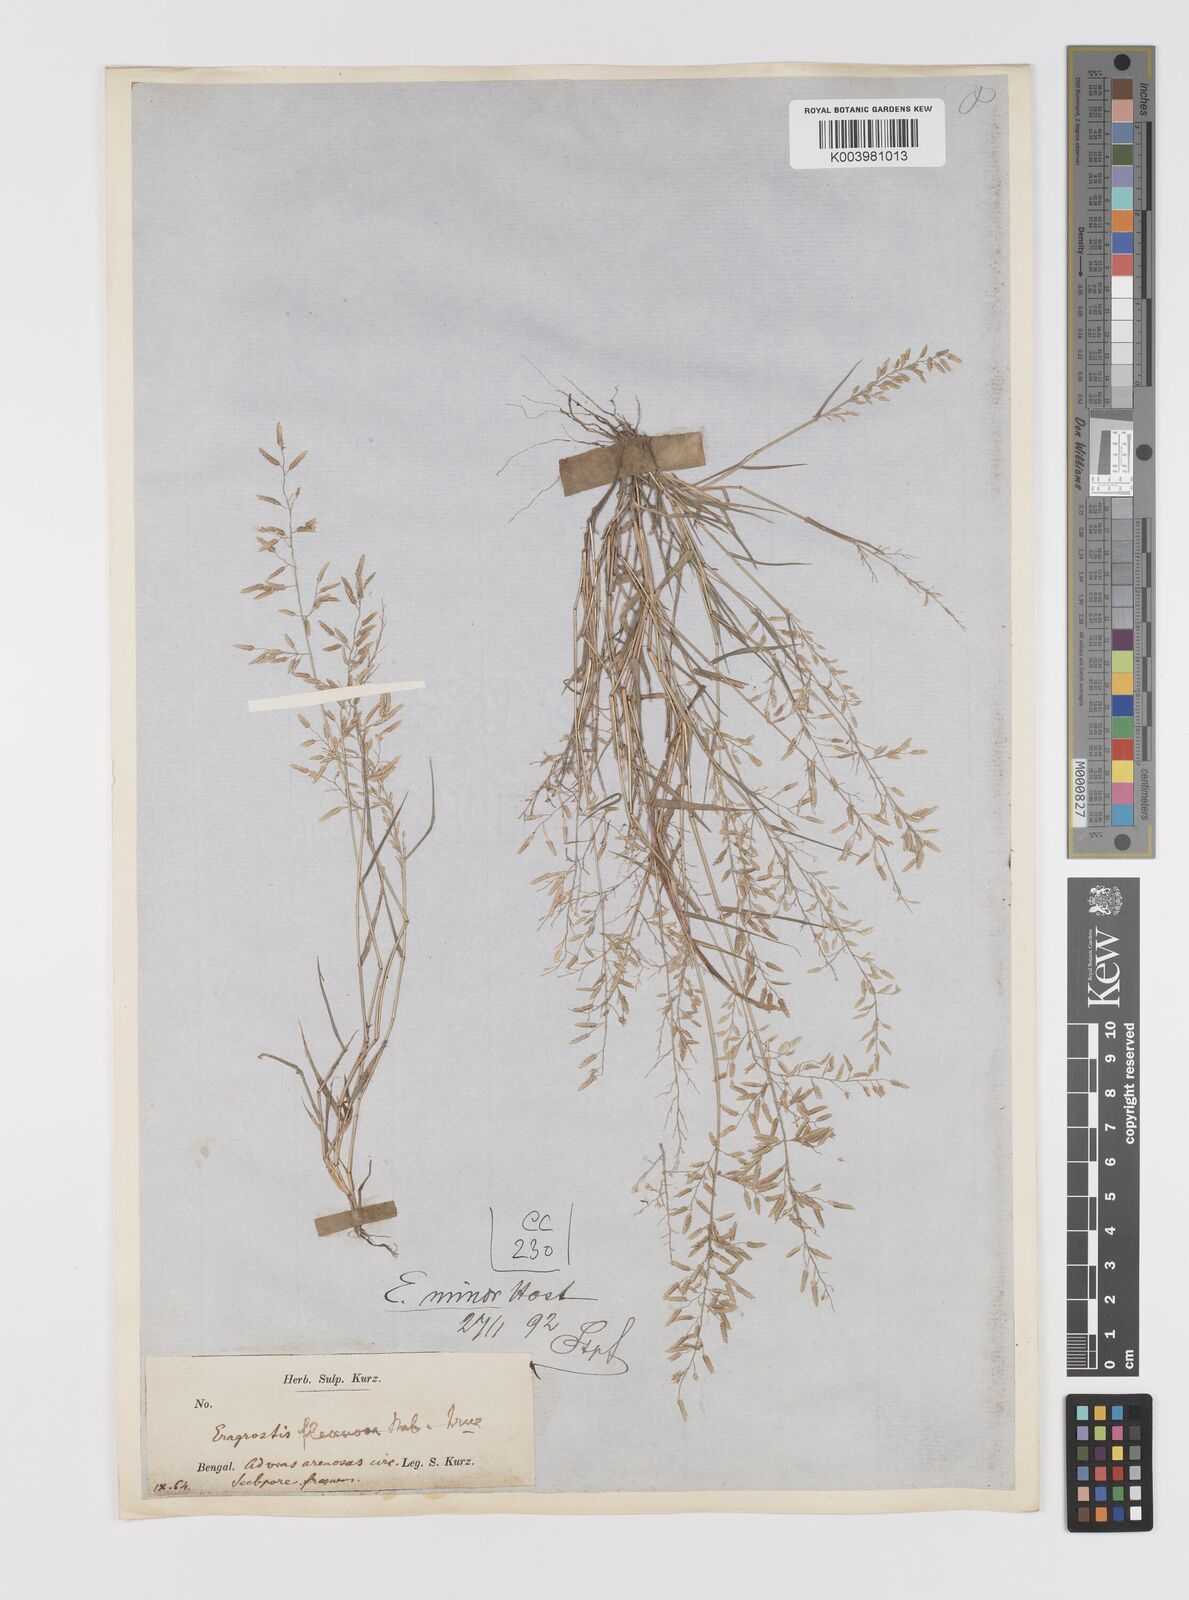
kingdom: Plantae
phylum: Tracheophyta
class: Liliopsida
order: Poales
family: Poaceae
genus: Eragrostis
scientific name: Eragrostis minor
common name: Small love-grass
